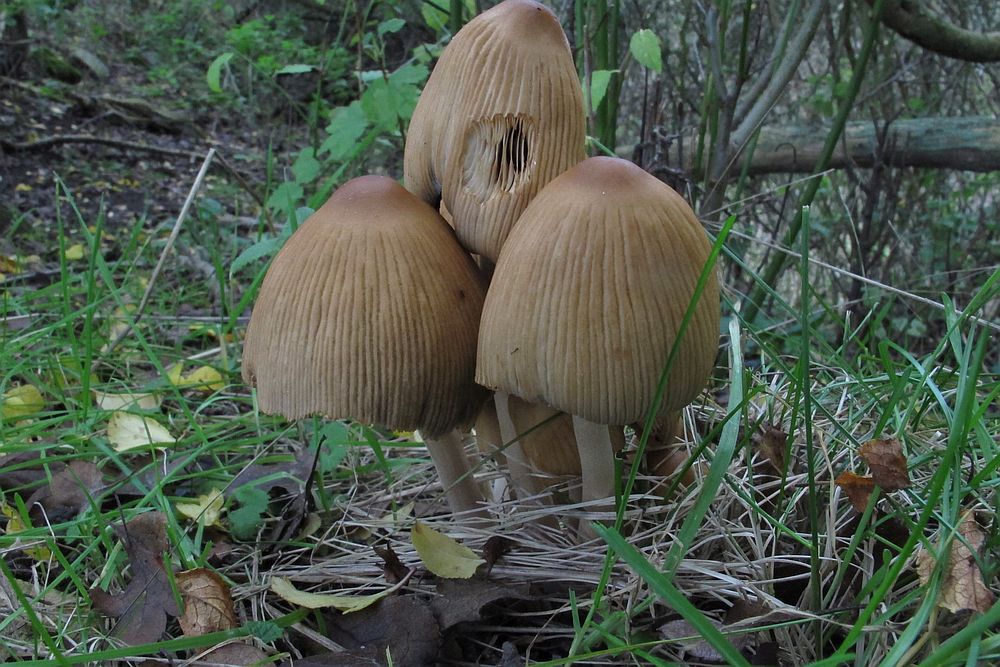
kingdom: Fungi
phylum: Basidiomycota
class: Agaricomycetes
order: Agaricales
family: Psathyrellaceae
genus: Coprinellus
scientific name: Coprinellus micaceus
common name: glimmer-blækhat
